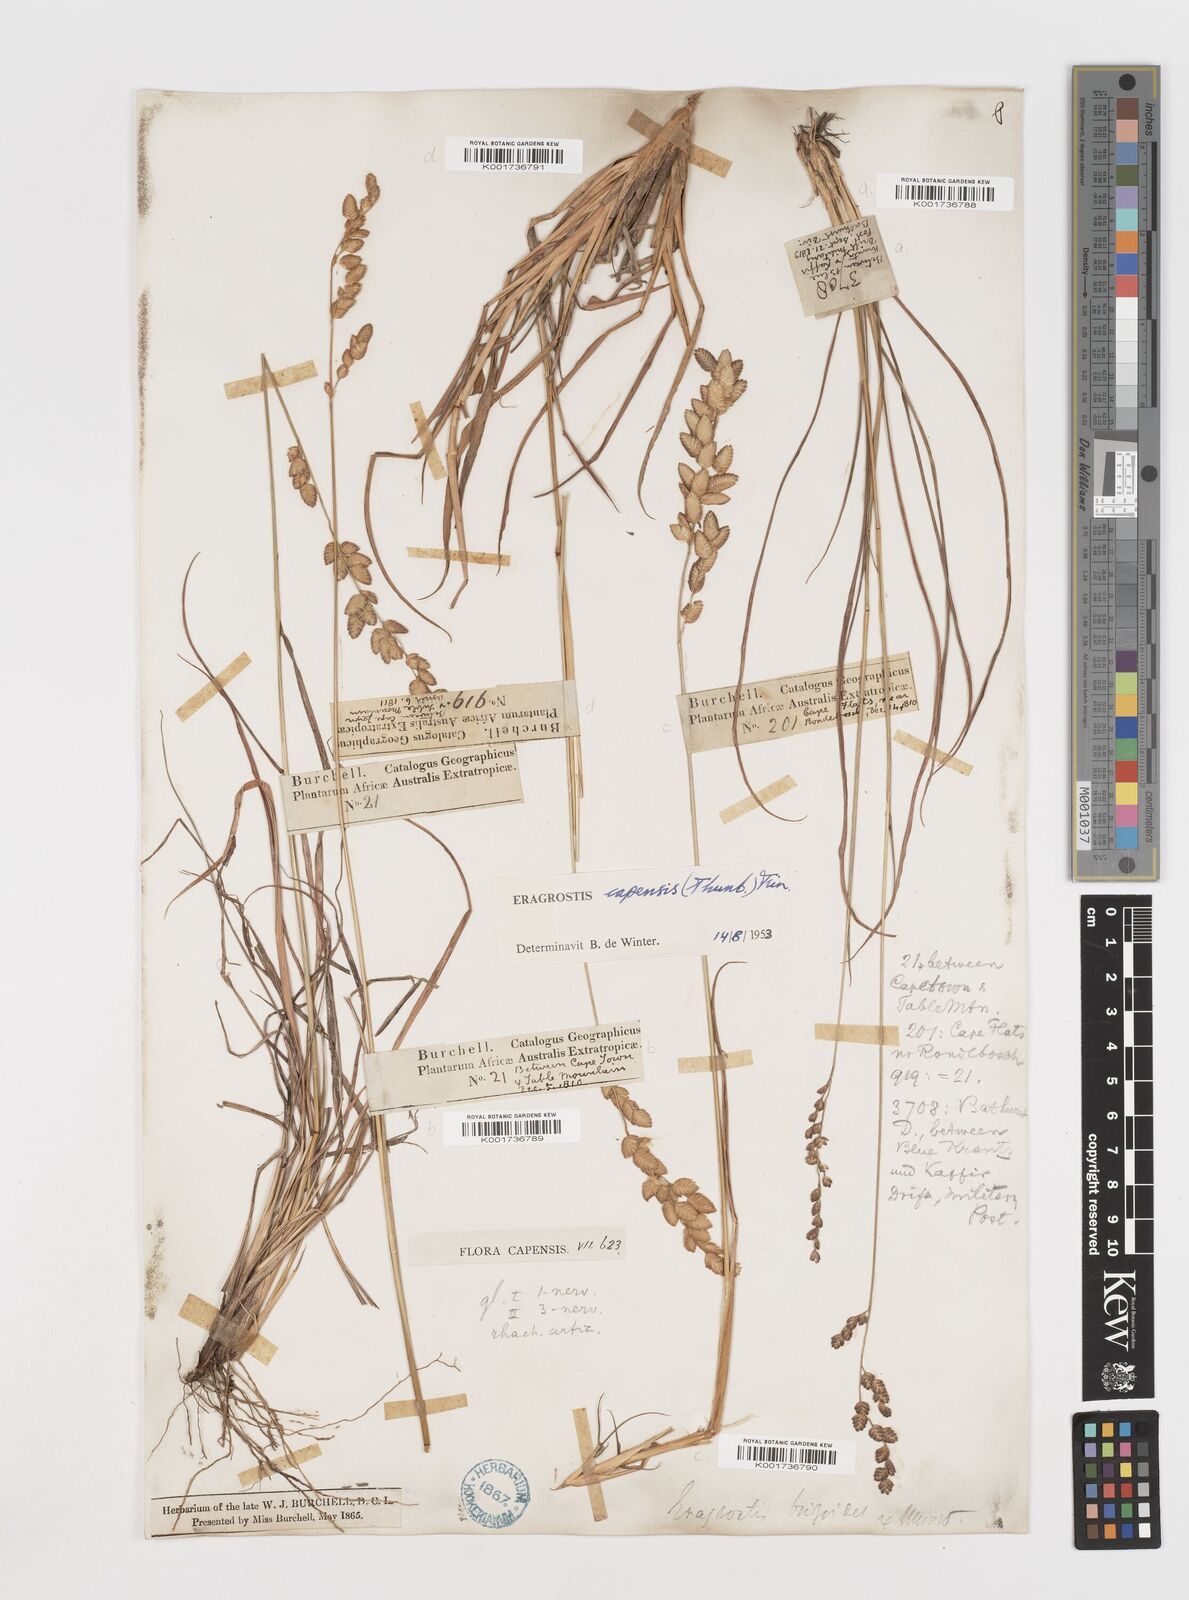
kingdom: Plantae
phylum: Tracheophyta
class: Liliopsida
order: Poales
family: Poaceae
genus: Eragrostis
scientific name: Eragrostis capensis
